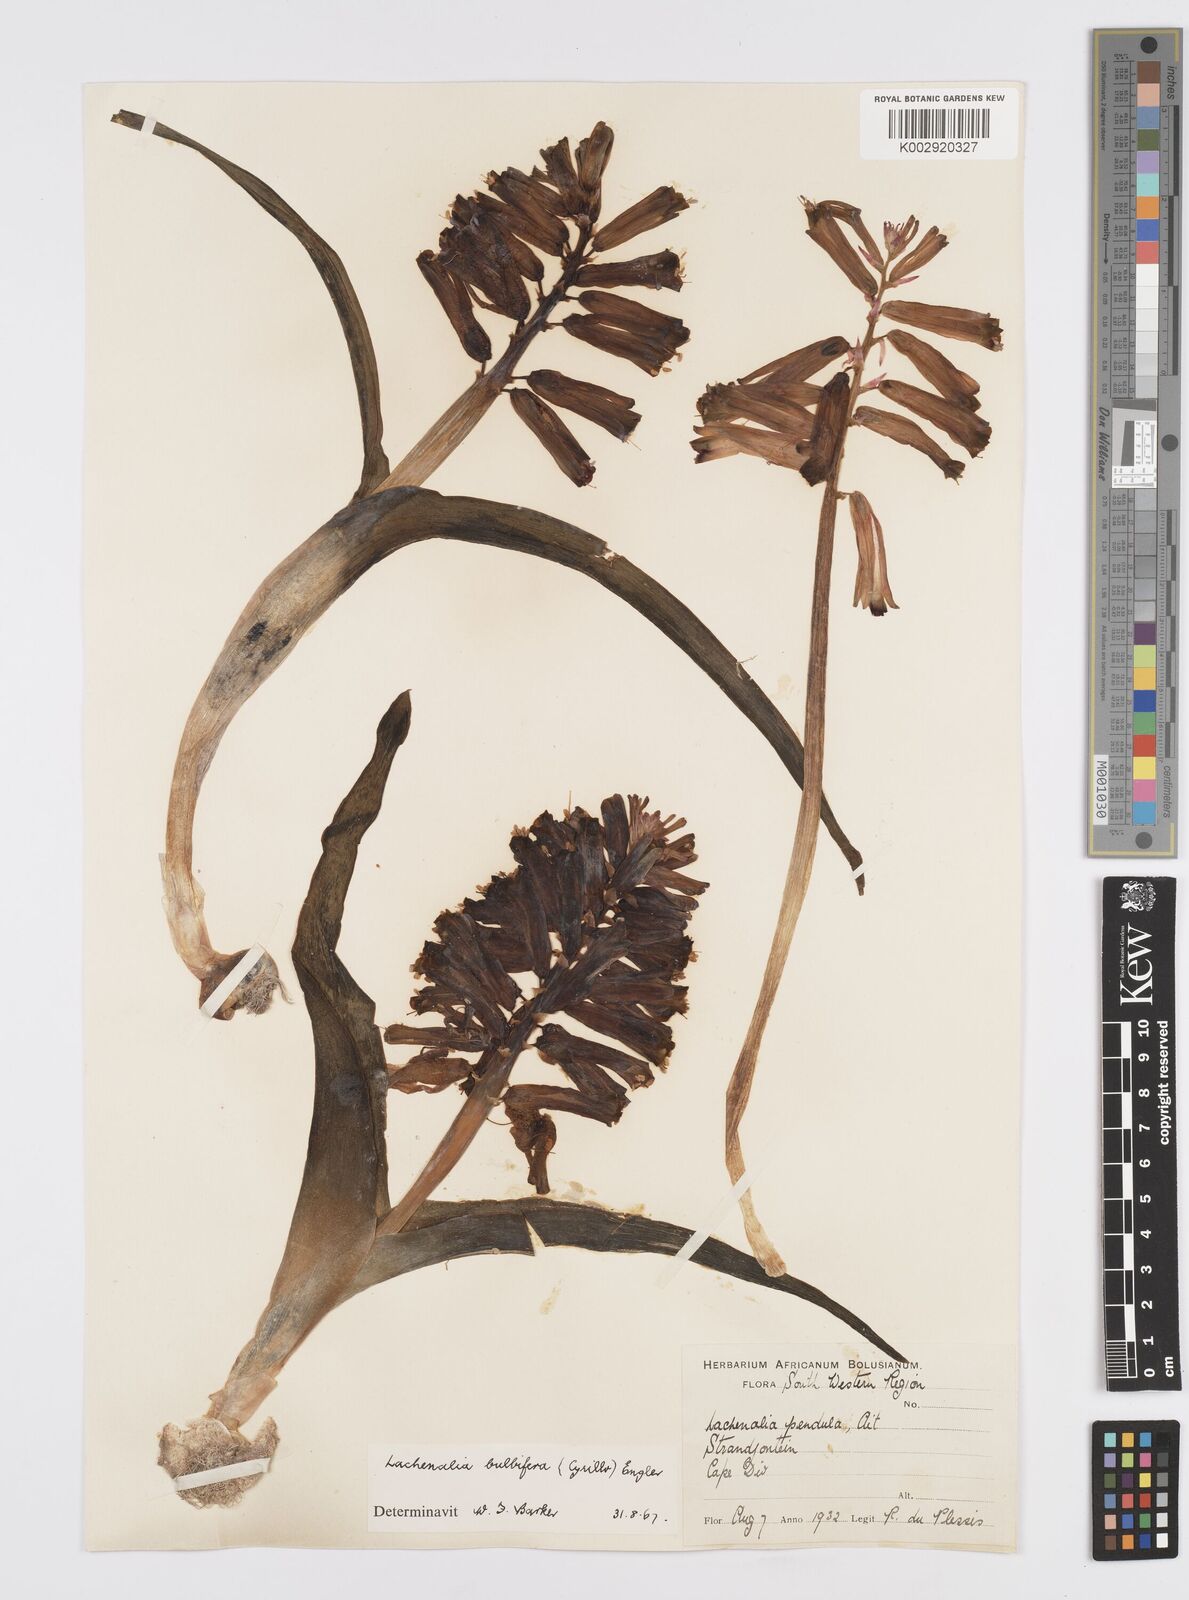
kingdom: Plantae
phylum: Tracheophyta
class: Liliopsida
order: Asparagales
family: Asparagaceae
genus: Lachenalia
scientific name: Lachenalia bulbifera
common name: Red lachenalia
